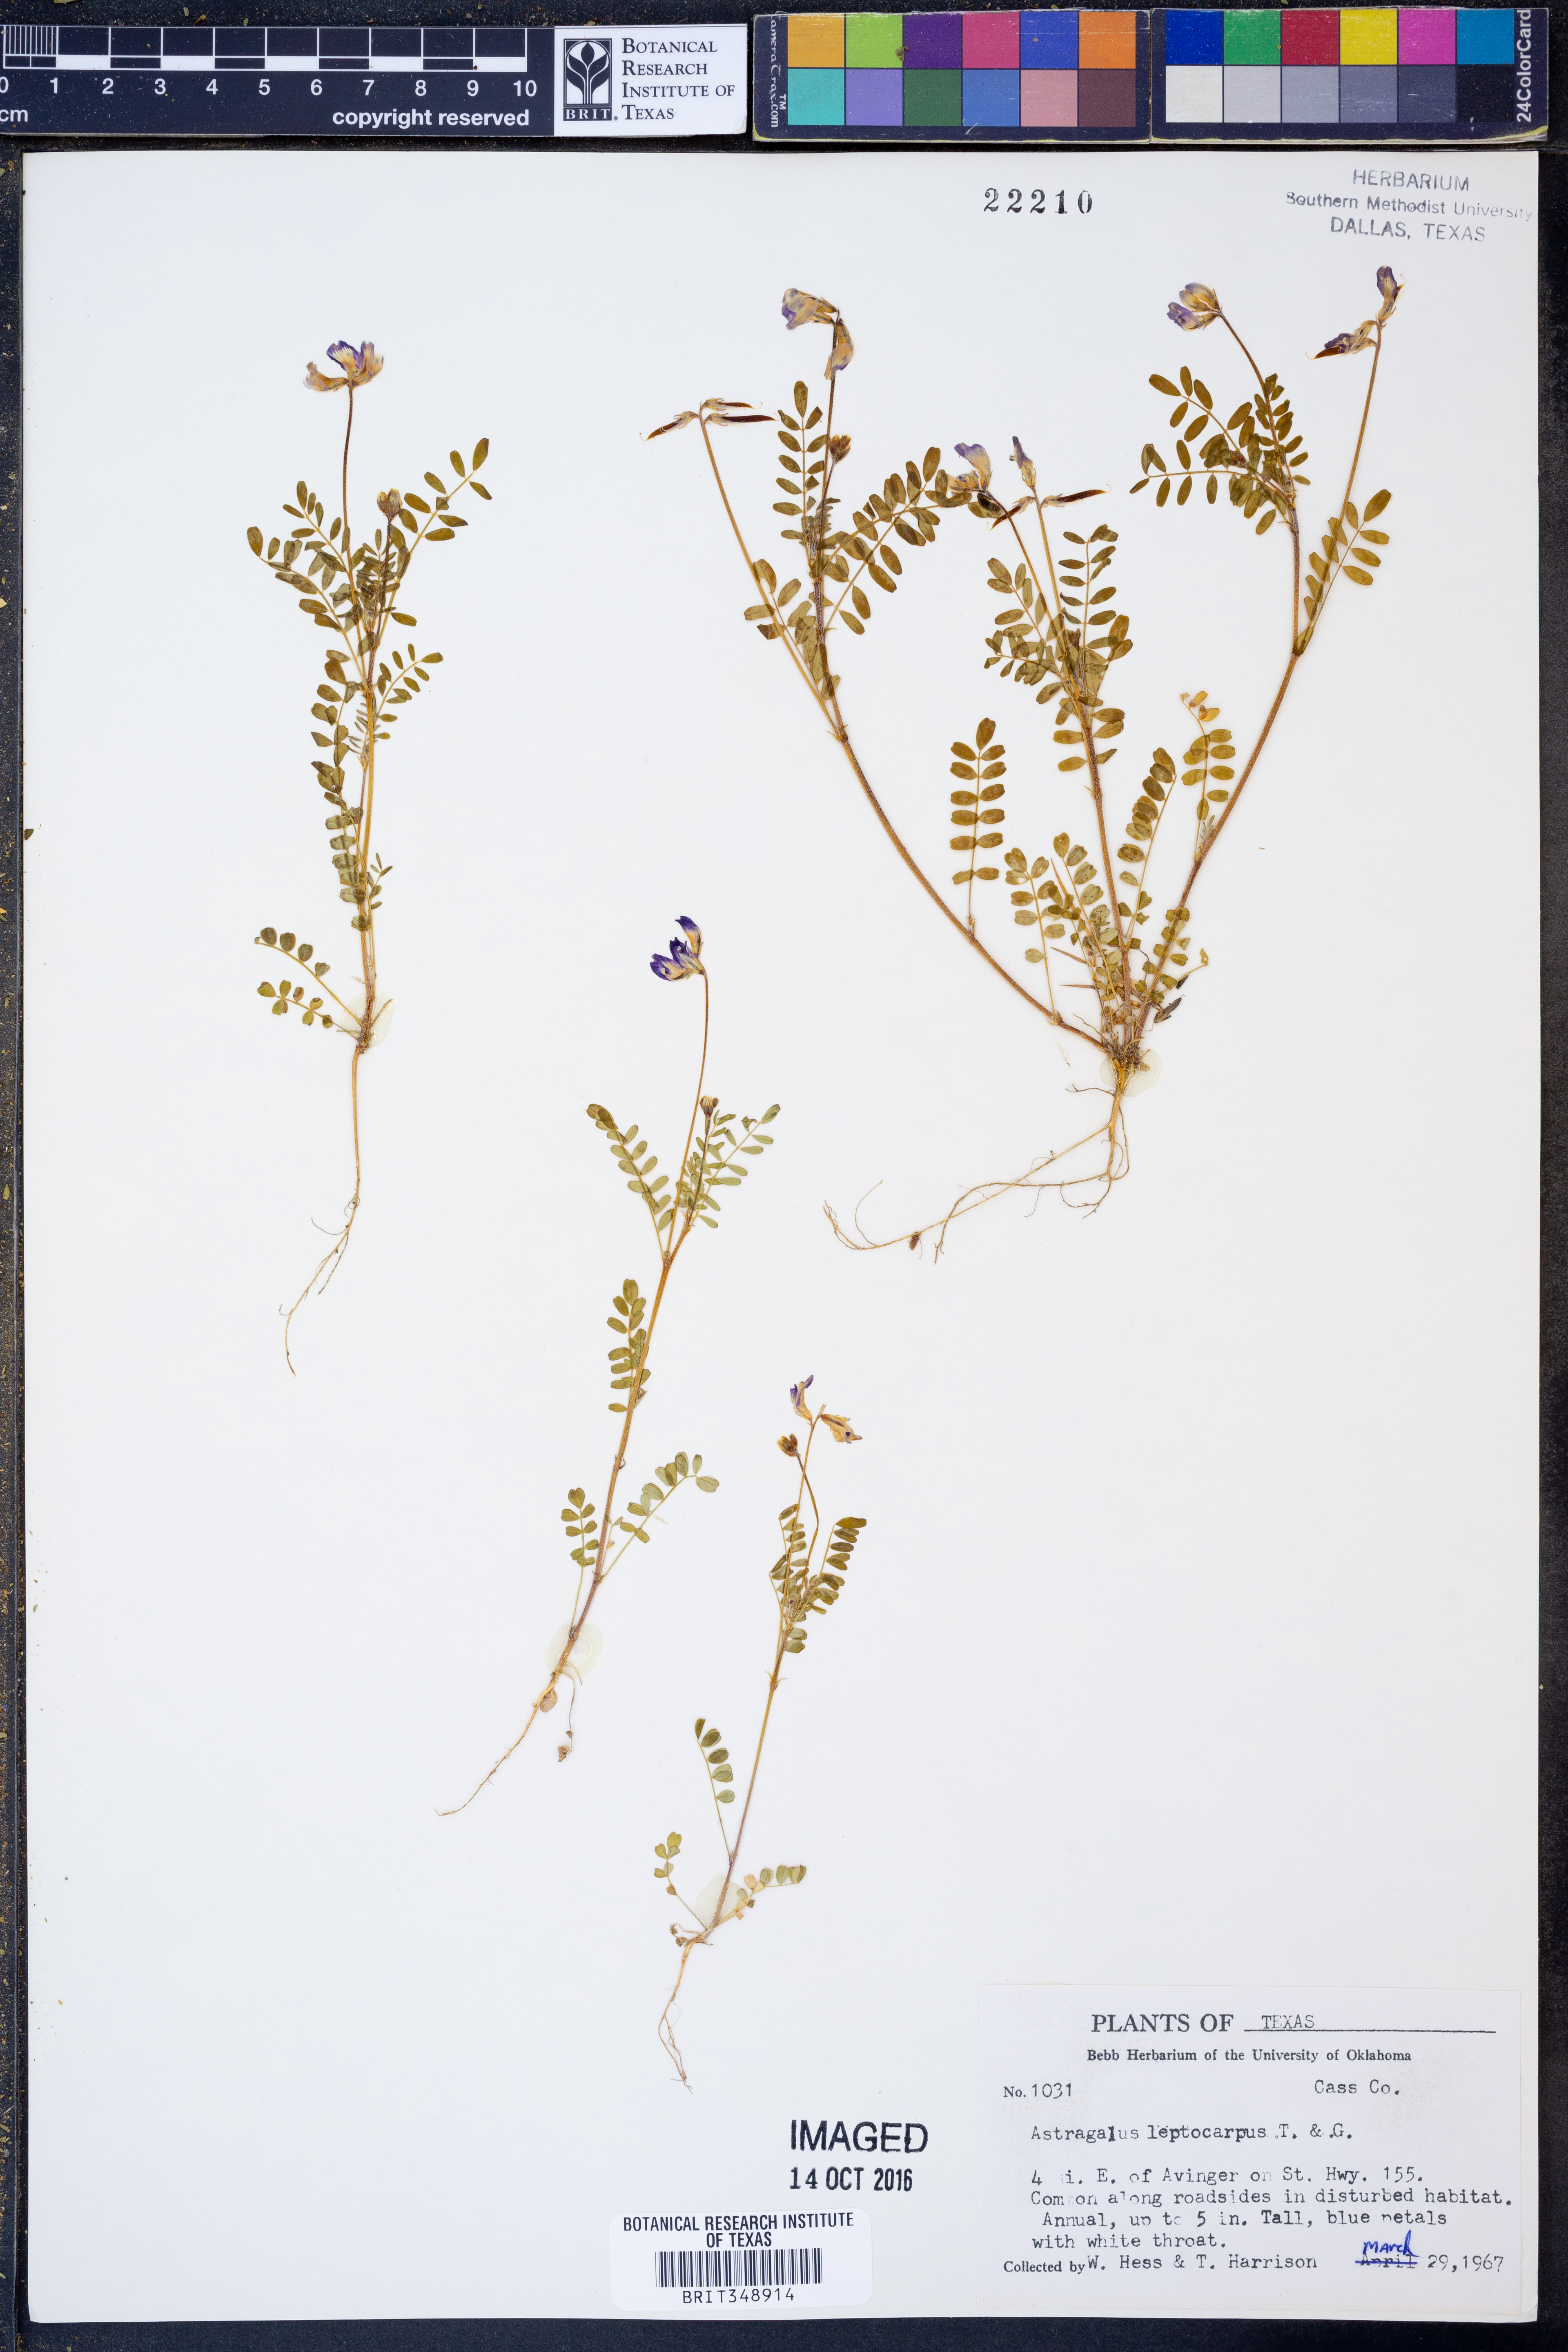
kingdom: Plantae
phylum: Tracheophyta
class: Magnoliopsida
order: Fabales
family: Fabaceae
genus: Astragalus
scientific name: Astragalus leptocarpus
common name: Bodkin milk-vetch
